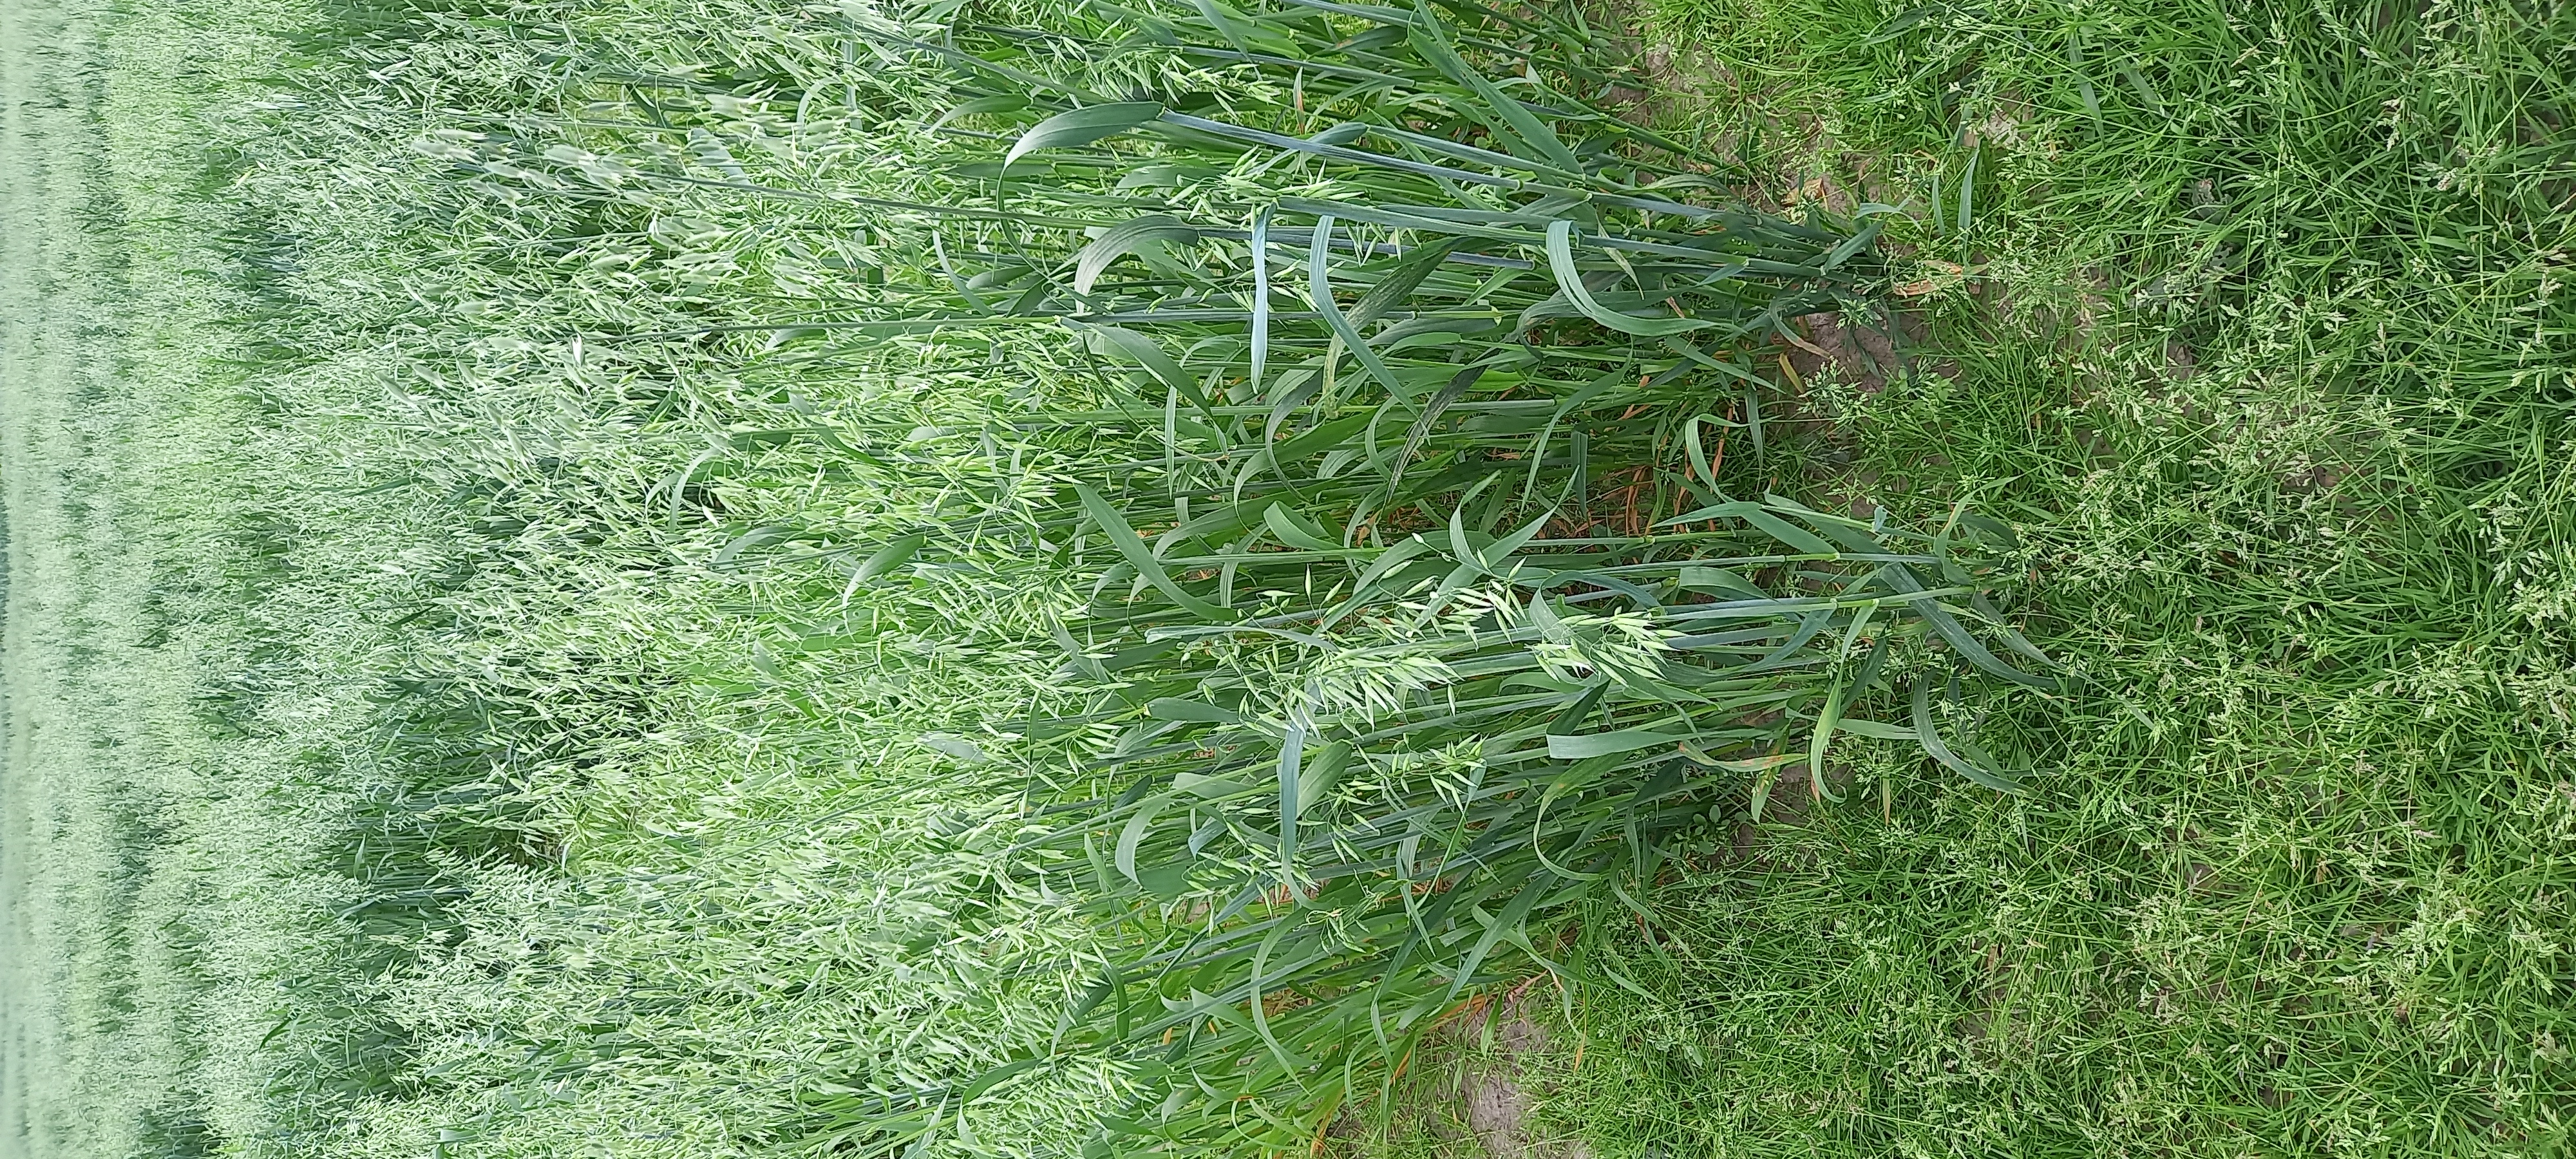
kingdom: Plantae
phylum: Tracheophyta
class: Liliopsida
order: Poales
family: Poaceae
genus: Avena
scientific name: Avena sativa
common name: Oat
